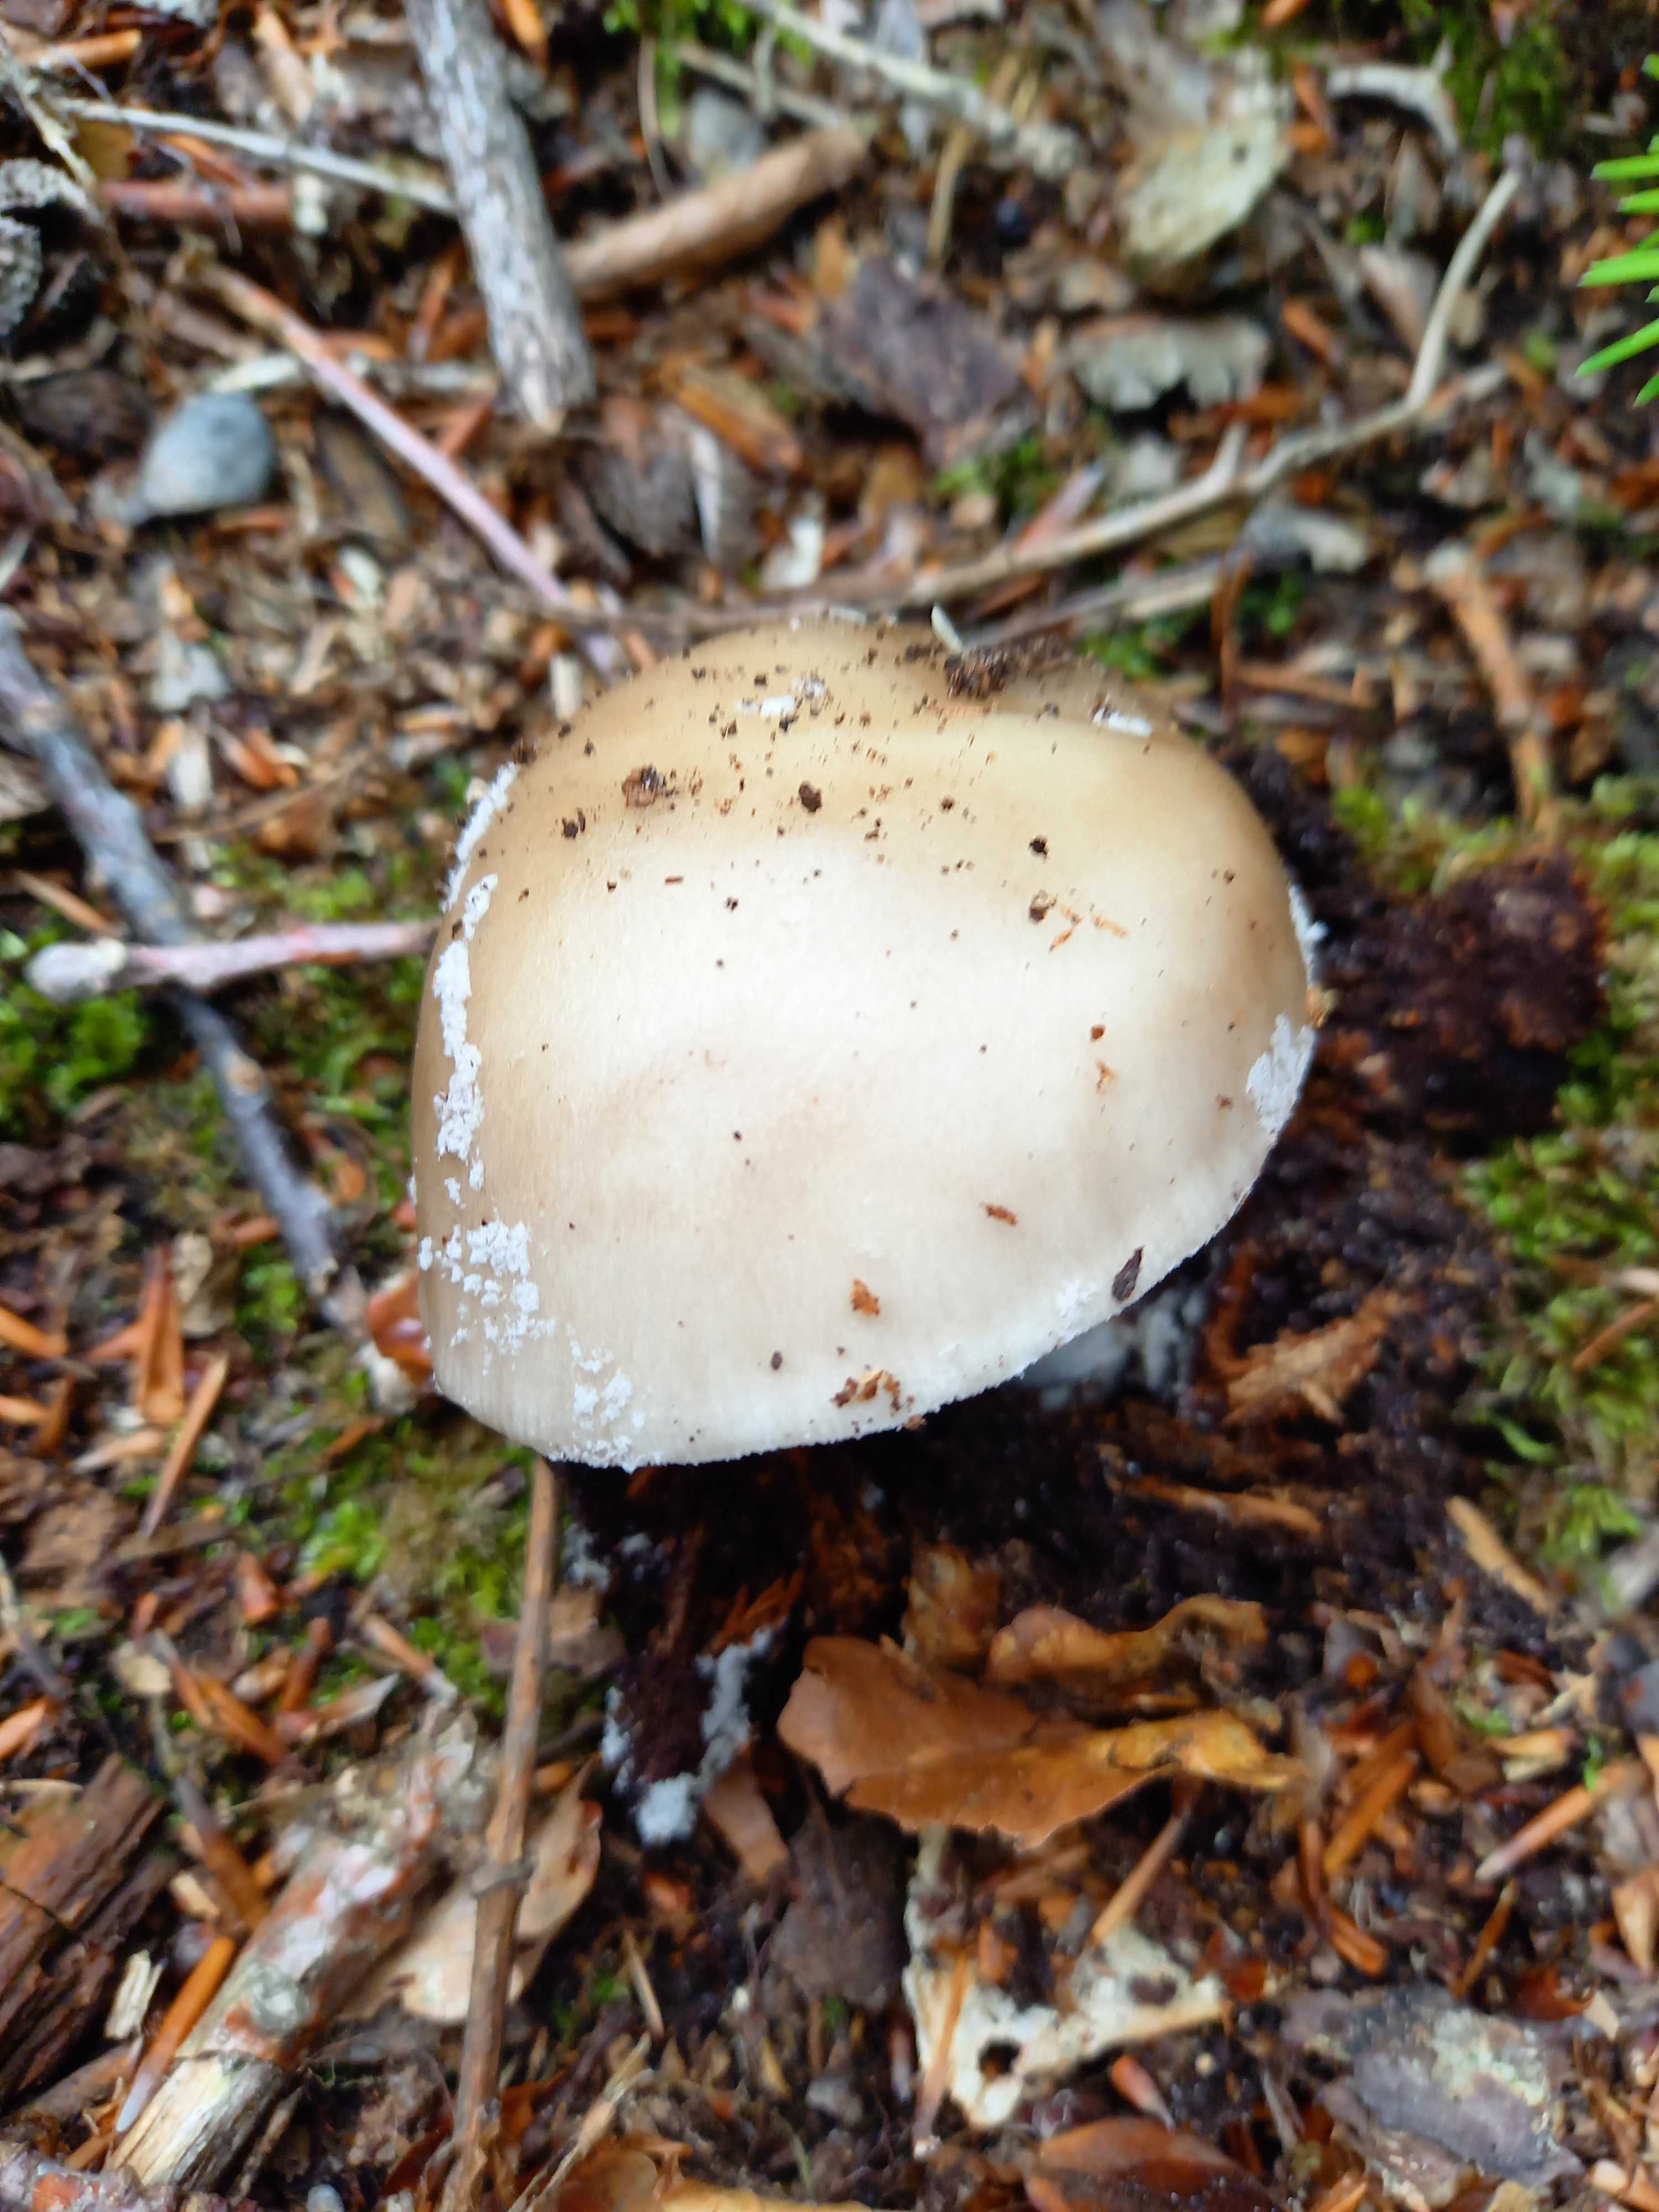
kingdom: Fungi
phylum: Basidiomycota
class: Agaricomycetes
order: Agaricales
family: Amanitaceae
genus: Amanita
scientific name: Amanita
